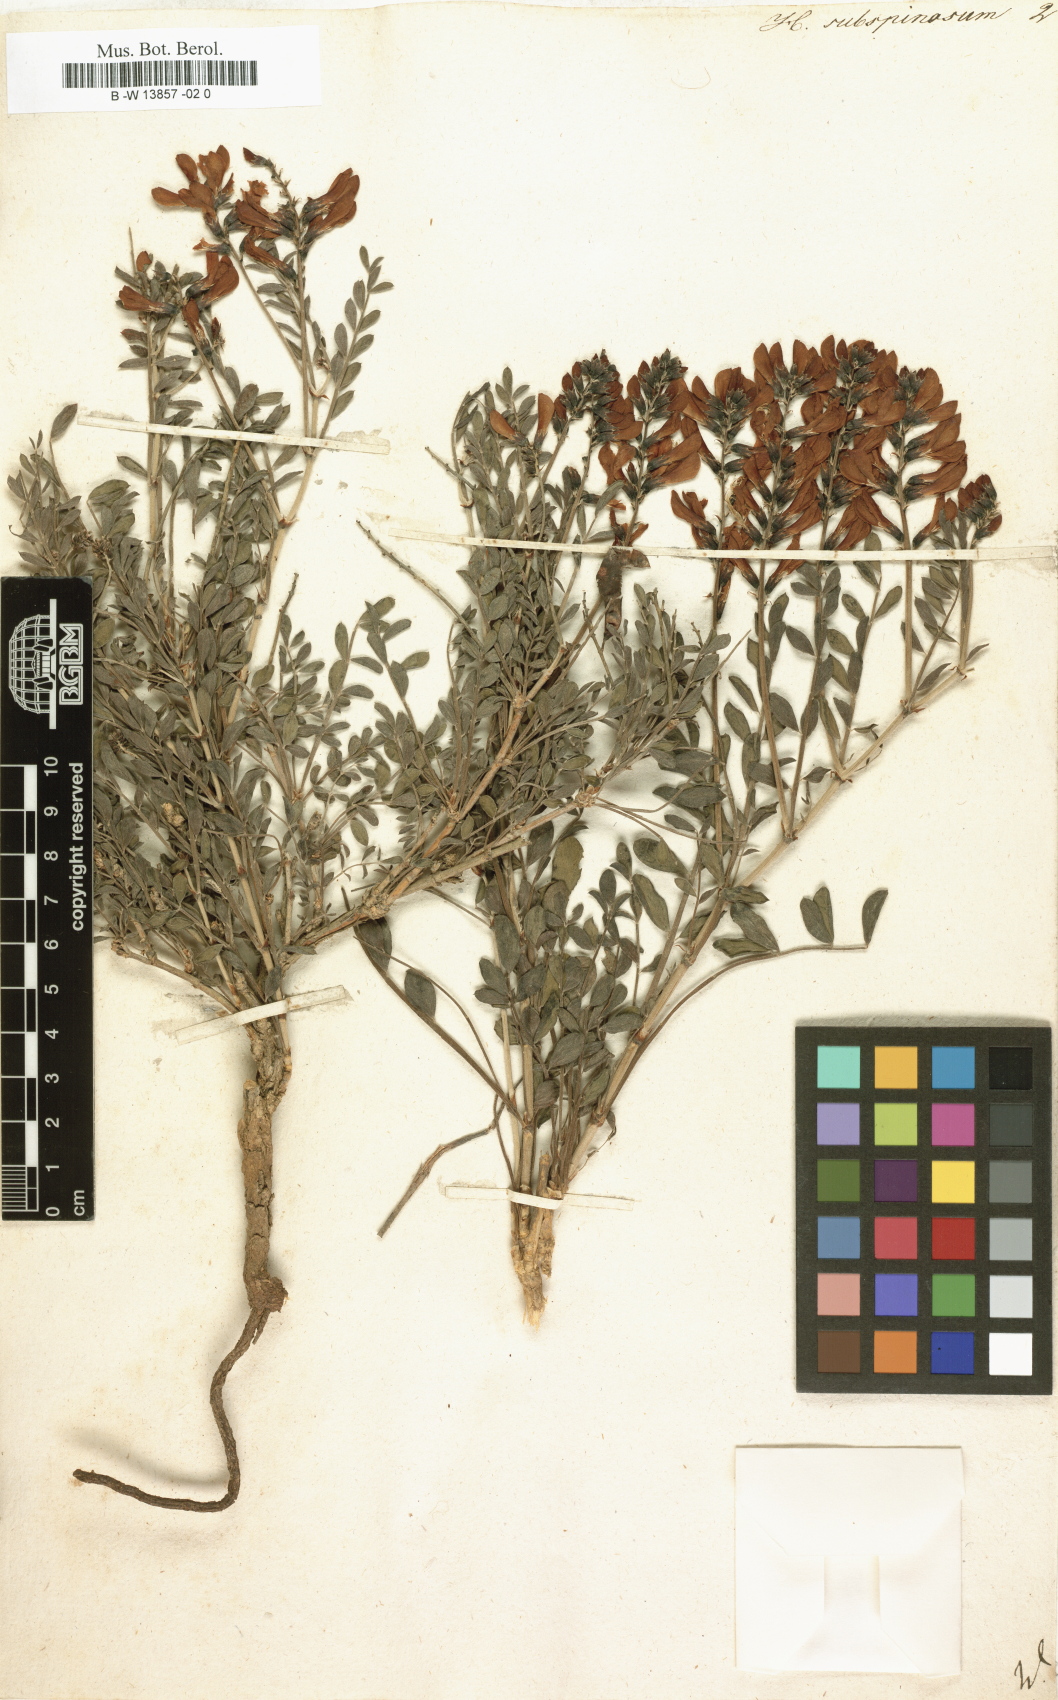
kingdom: Plantae
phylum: Tracheophyta
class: Magnoliopsida
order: Fabales
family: Fabaceae
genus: Eversmannia
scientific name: Eversmannia subspinosa
